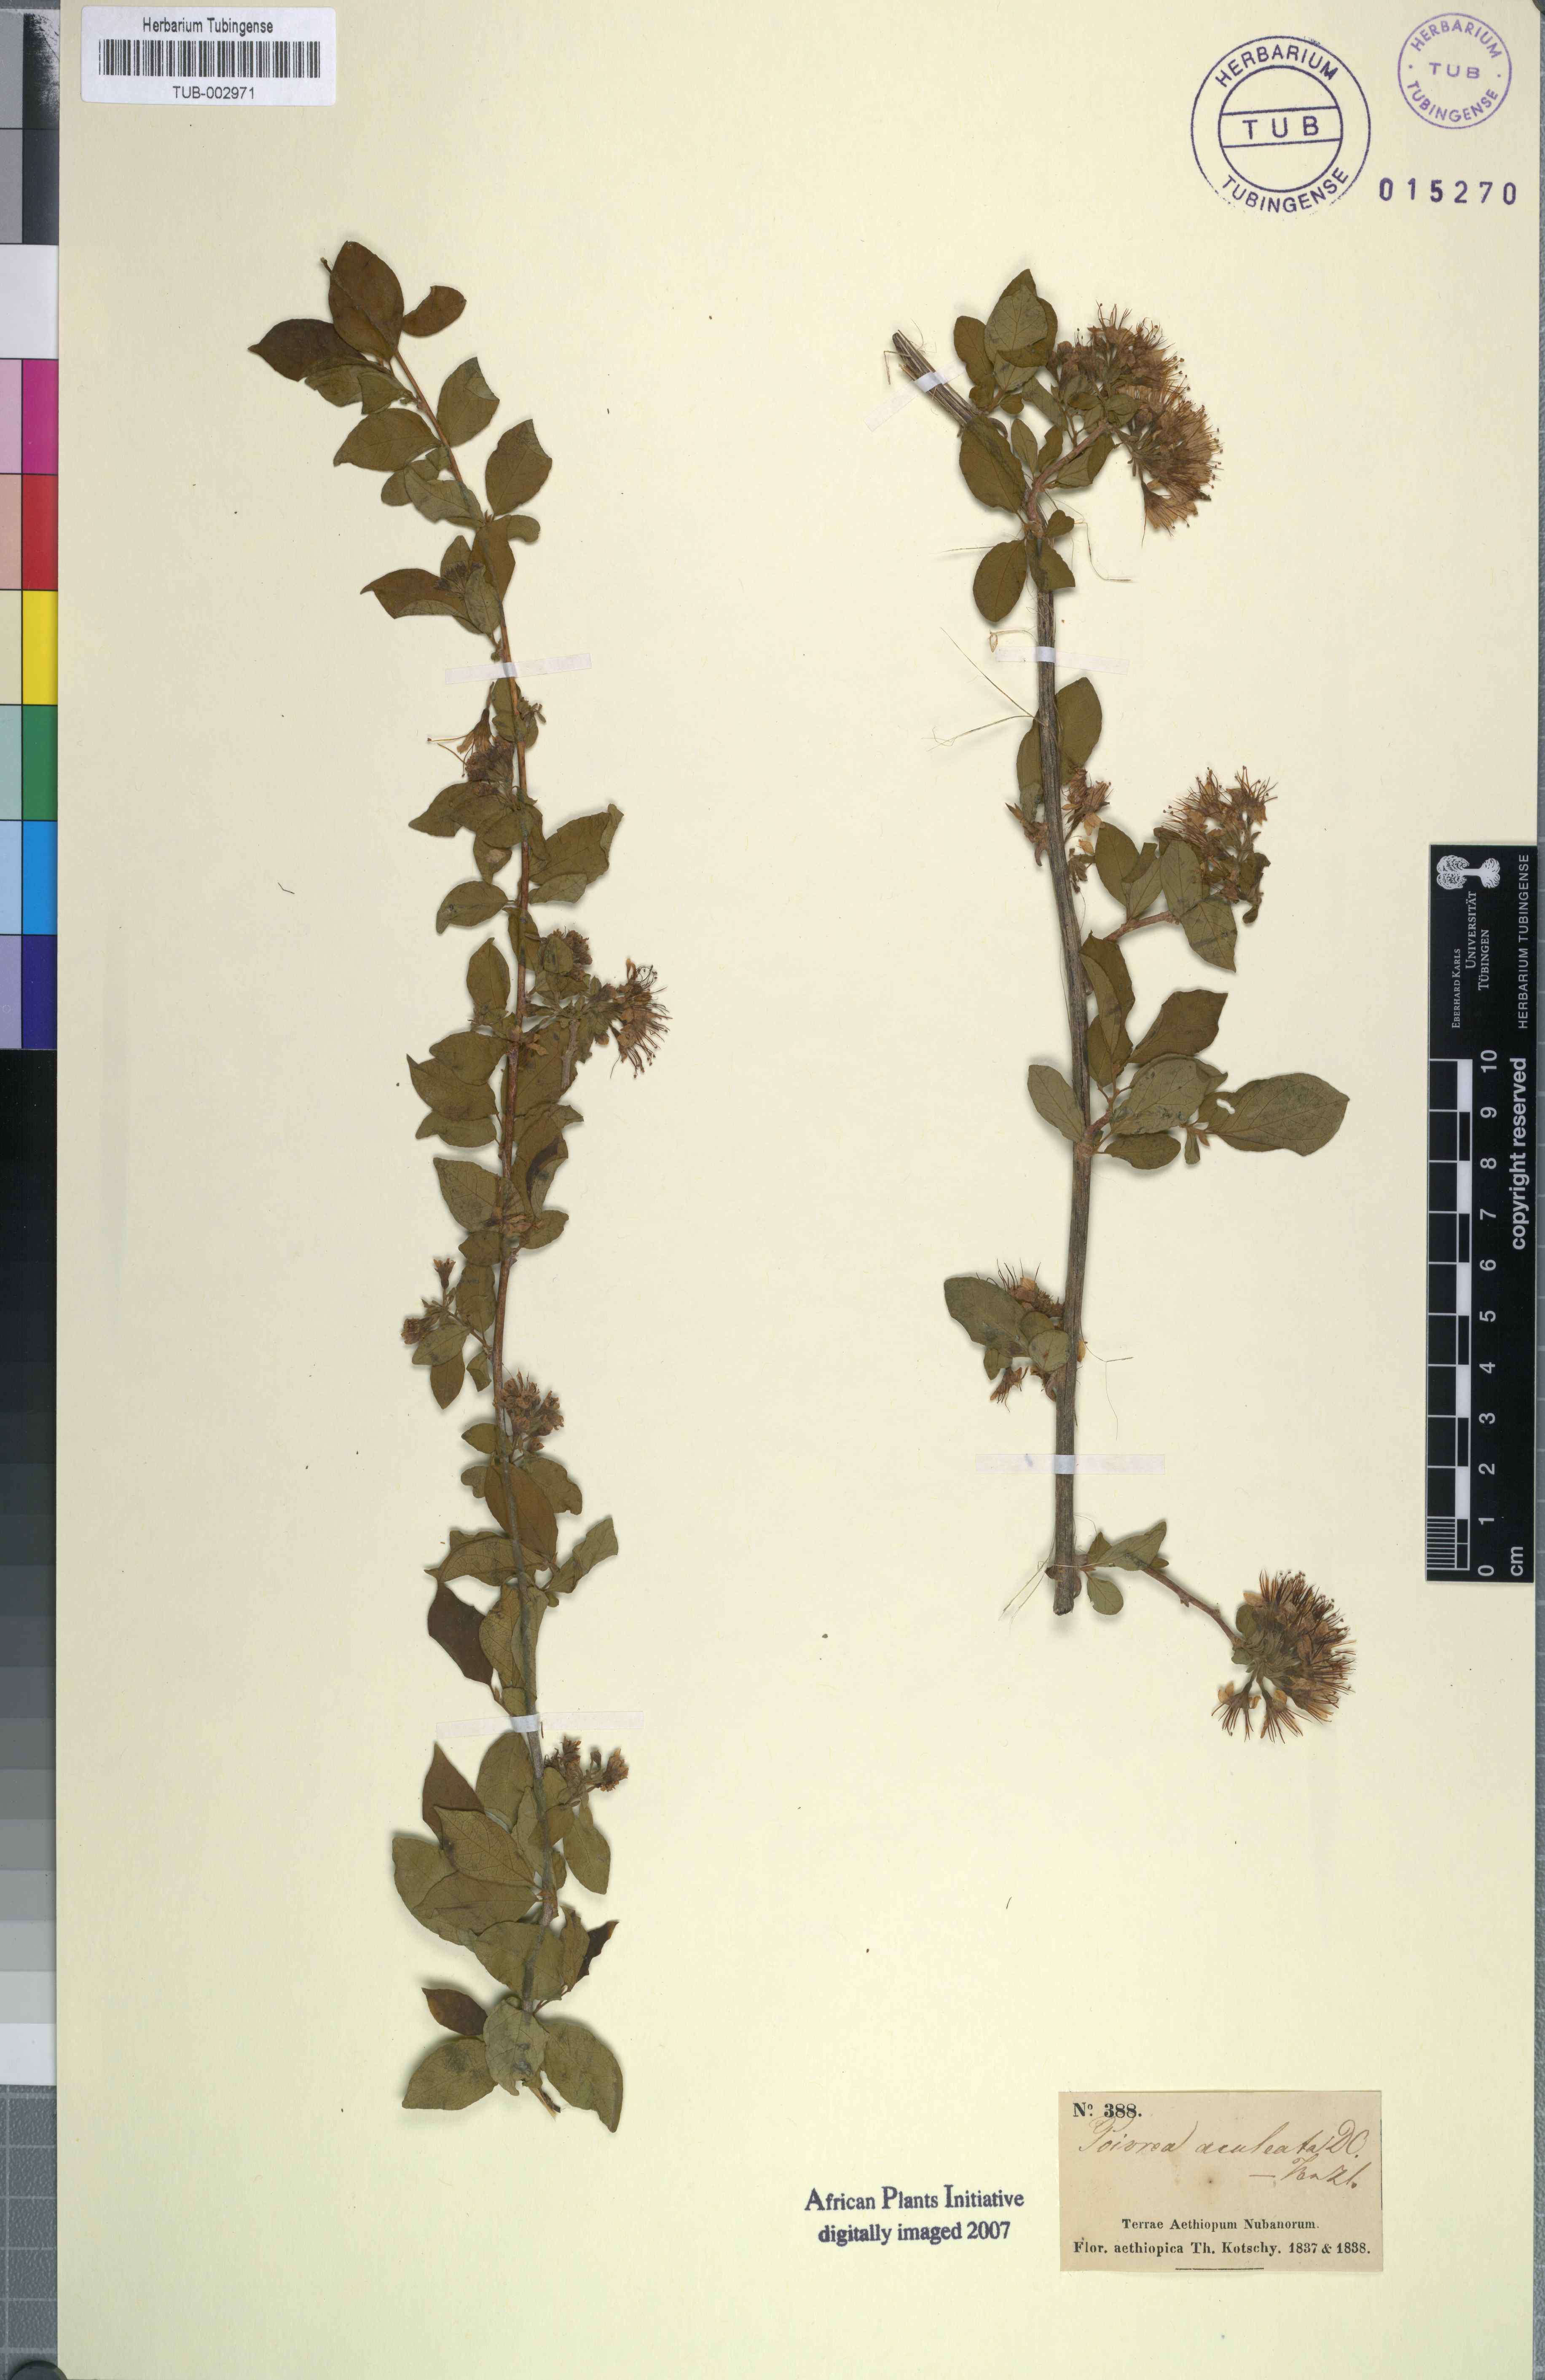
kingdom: Plantae
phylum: Tracheophyta
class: Magnoliopsida
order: Myrtales
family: Combretaceae
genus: Combretum
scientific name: Combretum aculeatum
